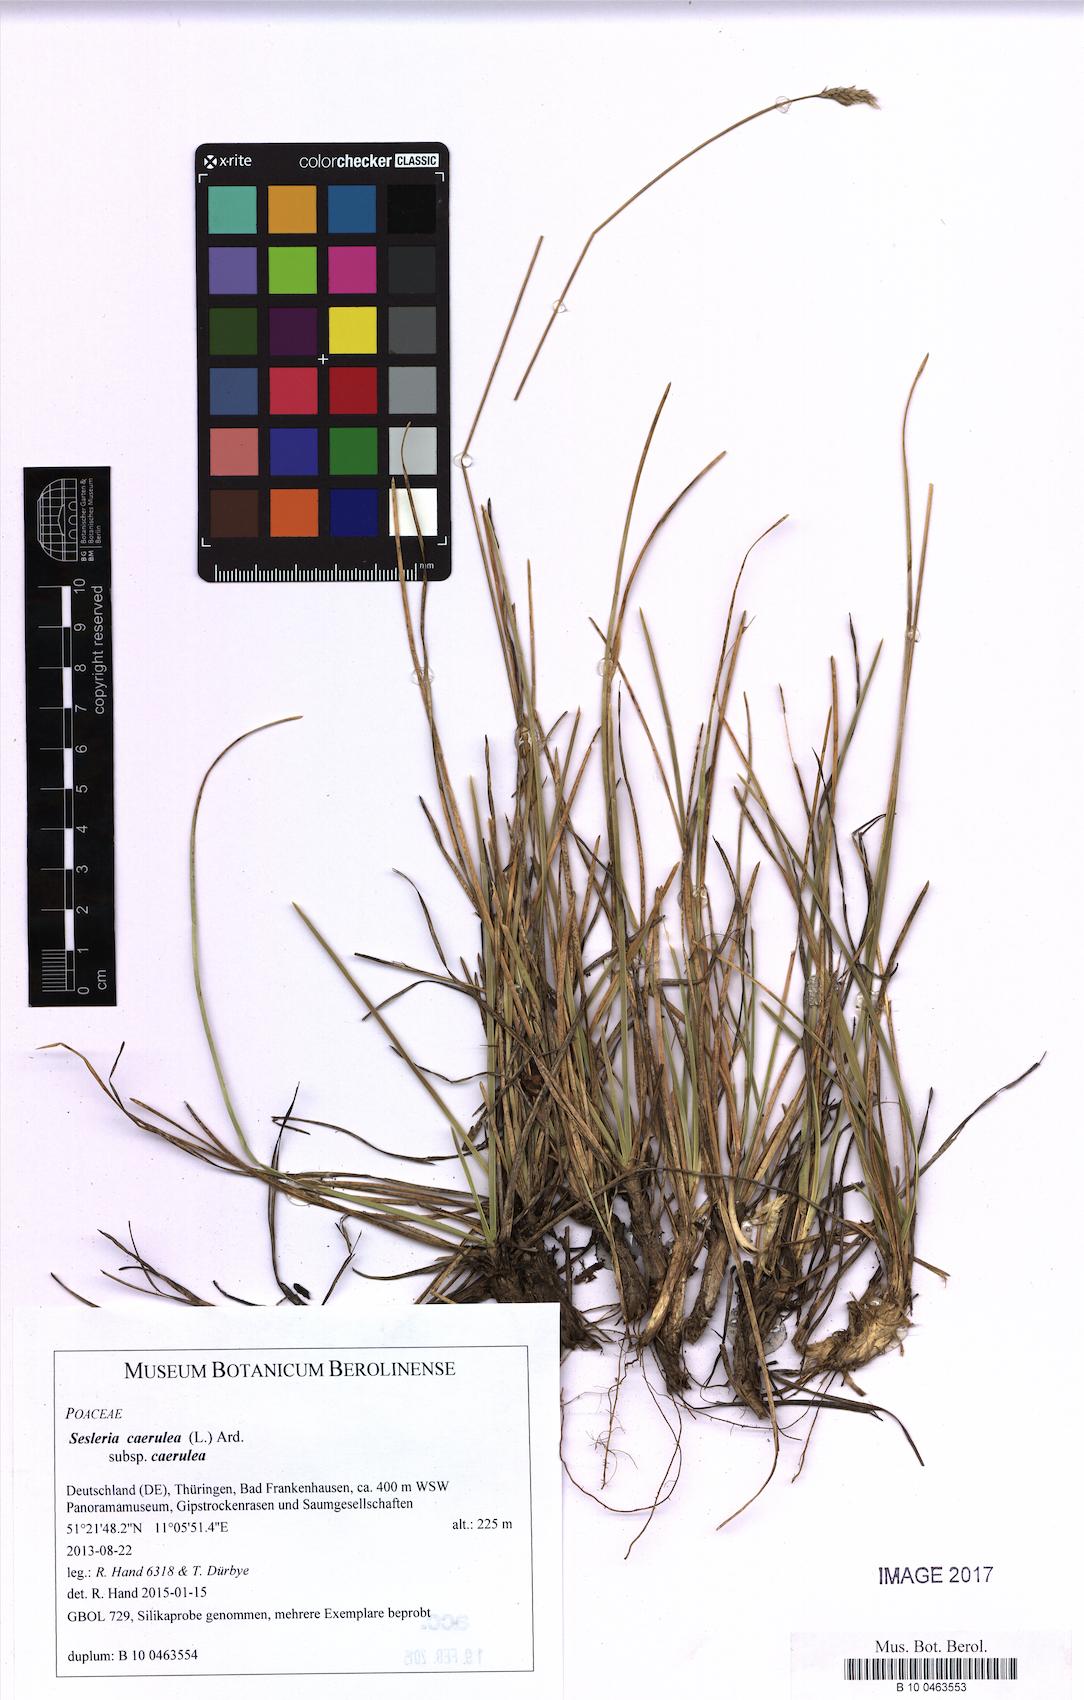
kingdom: Plantae
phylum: Tracheophyta
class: Liliopsida
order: Poales
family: Poaceae
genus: Sesleria
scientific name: Sesleria caerulea
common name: Blue moor-grass
